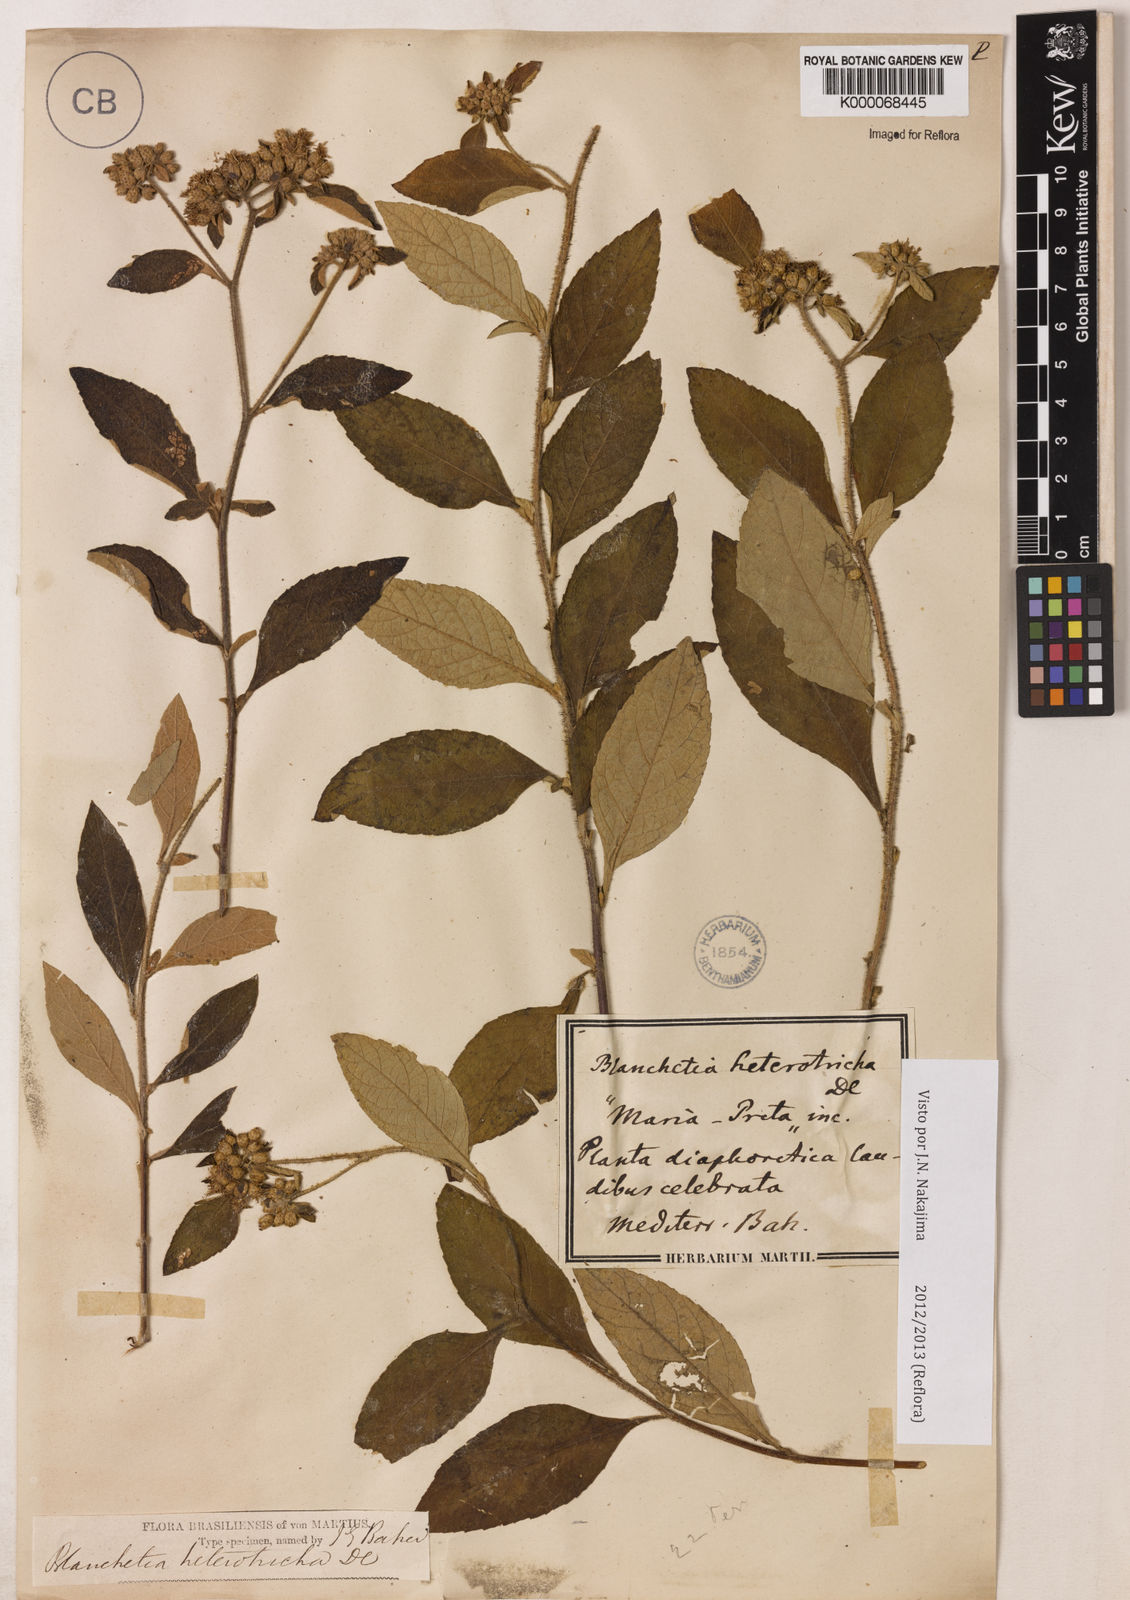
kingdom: Plantae
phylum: Tracheophyta
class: Magnoliopsida
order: Asterales
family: Asteraceae
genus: Blanchetia
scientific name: Blanchetia heterotricha
